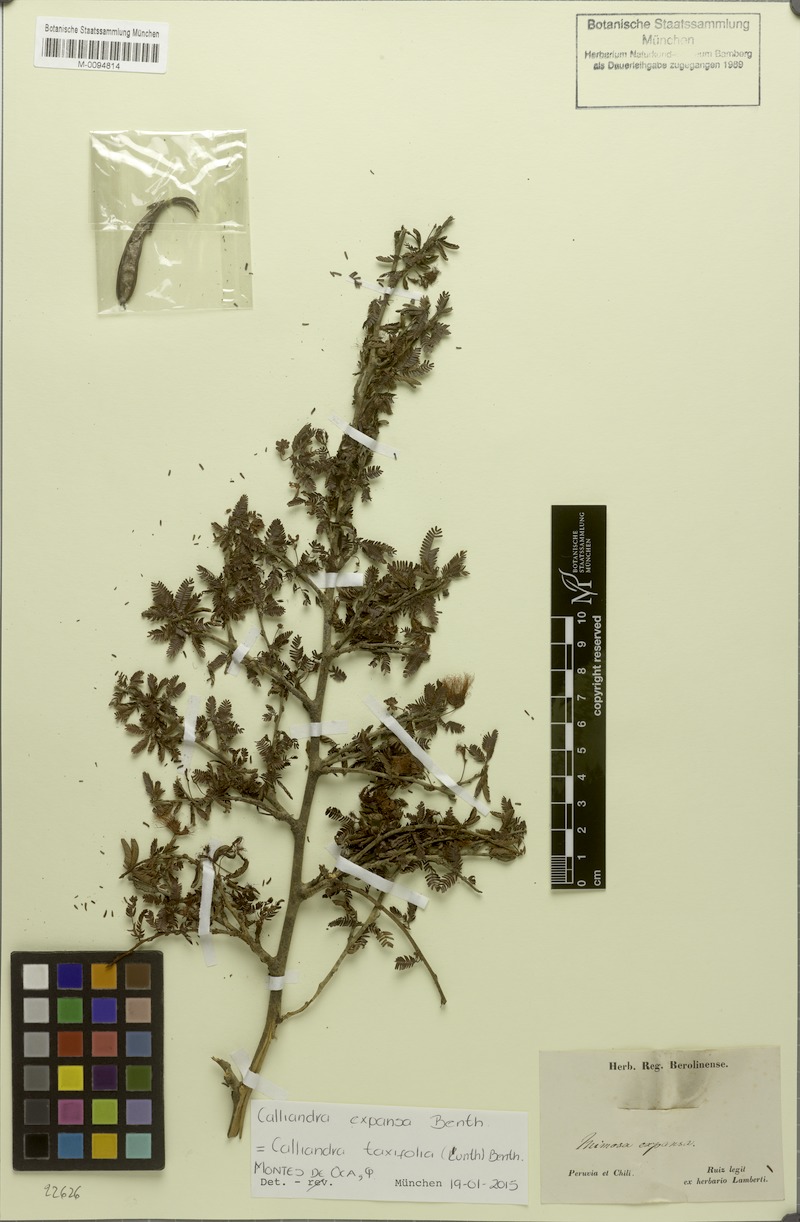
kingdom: Plantae
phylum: Tracheophyta
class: Magnoliopsida
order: Fabales
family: Fabaceae
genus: Calliandra
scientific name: Calliandra taxifolia
